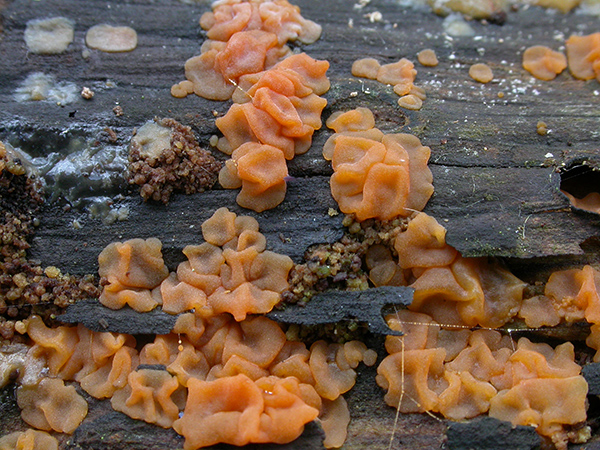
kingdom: Fungi
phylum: Basidiomycota
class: Dacrymycetes
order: Dacrymycetales
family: Dacrymycetaceae
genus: Dacrymyces
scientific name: Dacrymyces lacrymalis
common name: rynket tåresvamp
